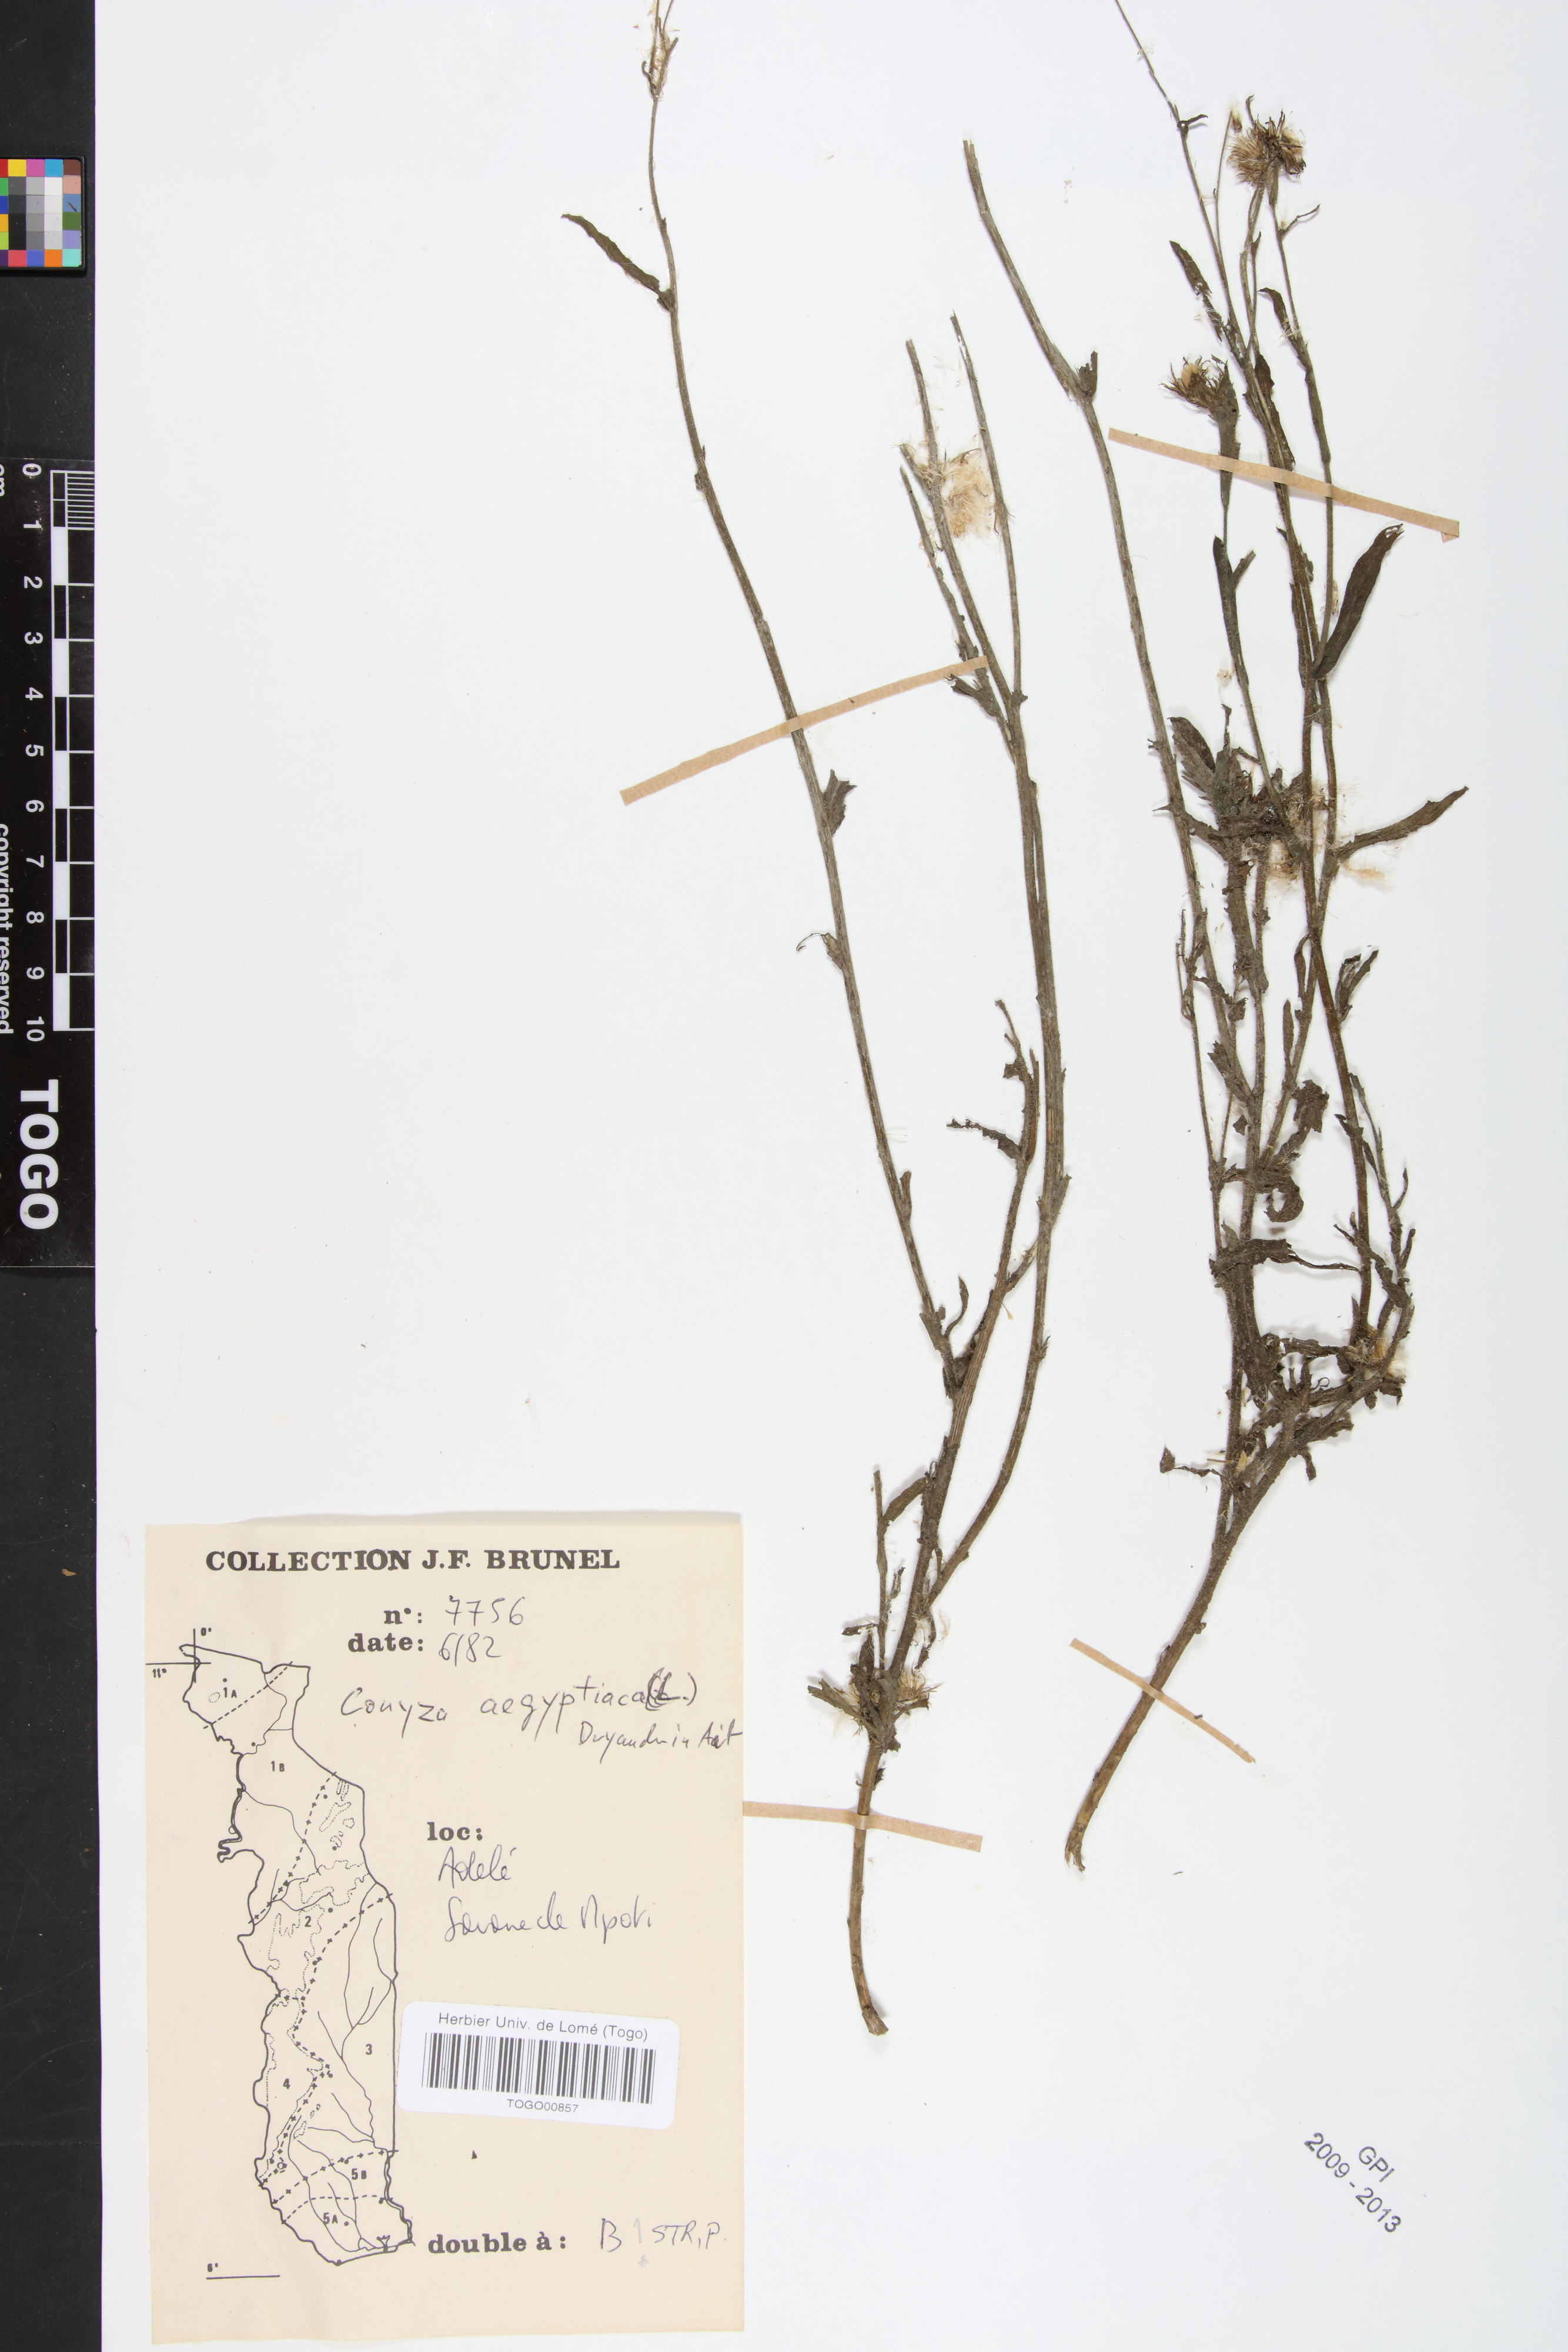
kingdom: Plantae
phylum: Tracheophyta
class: Magnoliopsida
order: Asterales
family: Asteraceae
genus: Nidorella
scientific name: Nidorella aegyptiaca
